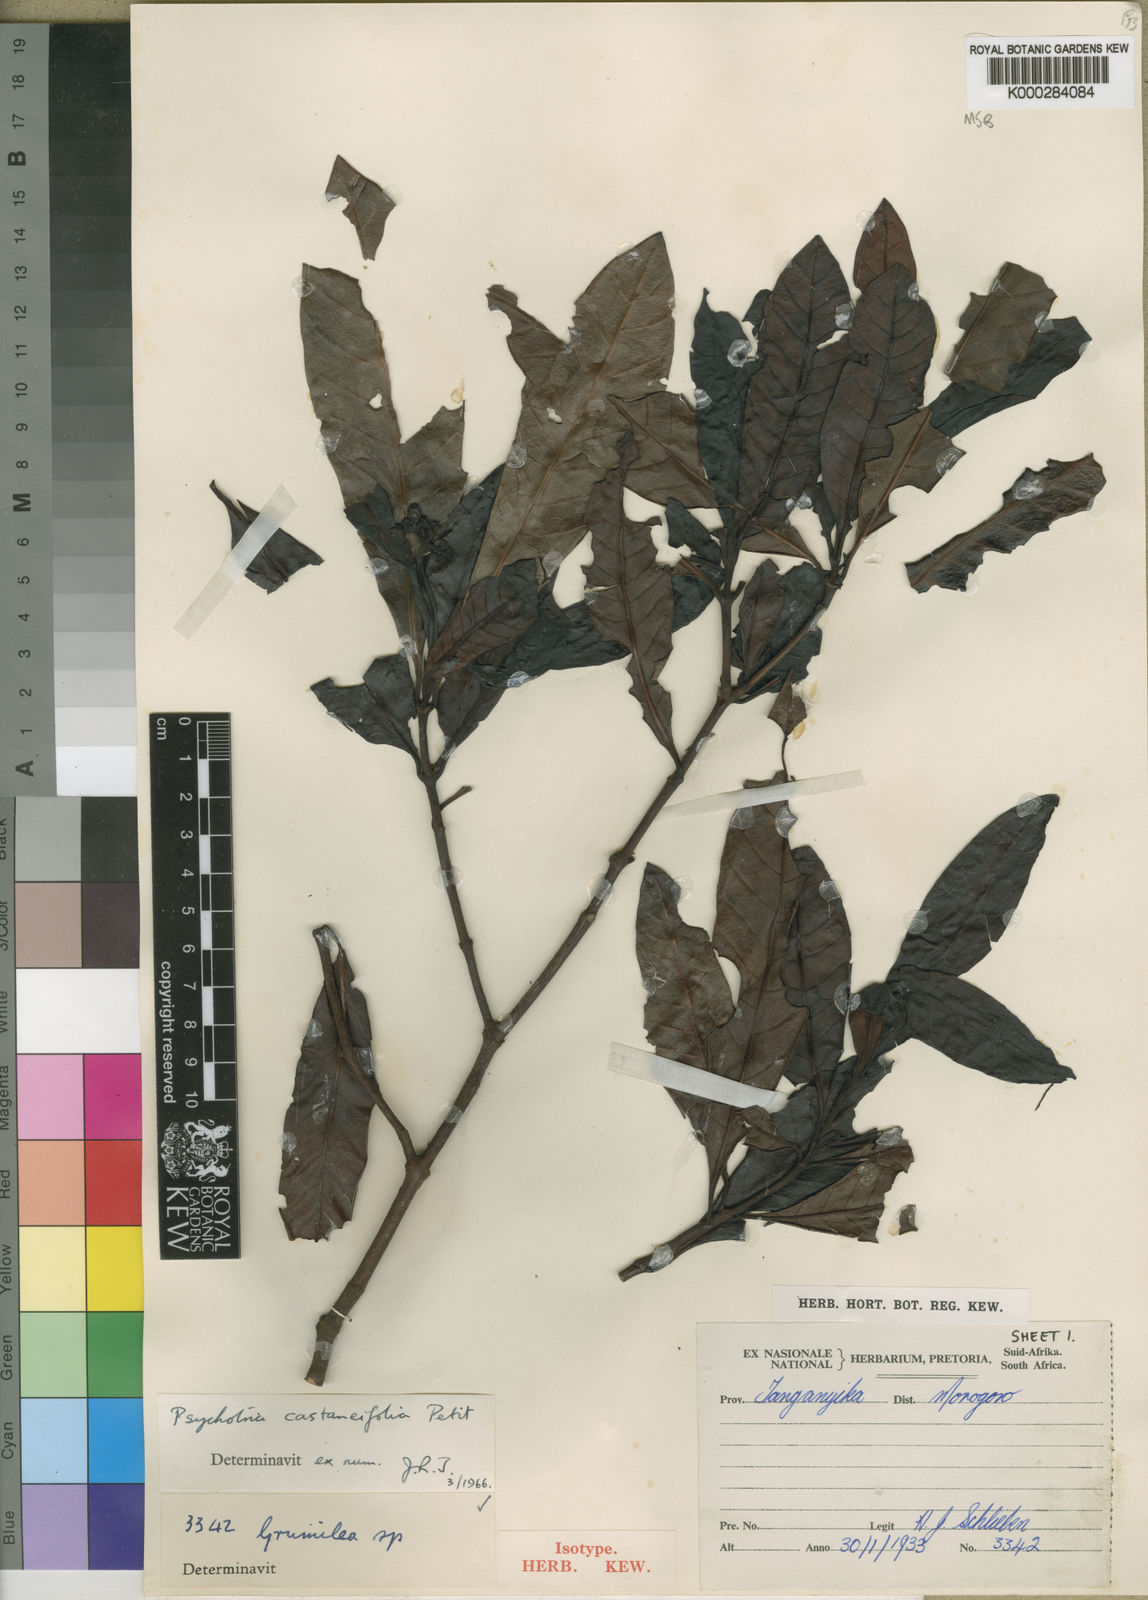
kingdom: Plantae
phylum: Tracheophyta
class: Magnoliopsida
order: Gentianales
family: Rubiaceae
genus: Psychotria
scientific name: Psychotria castaneifolia
